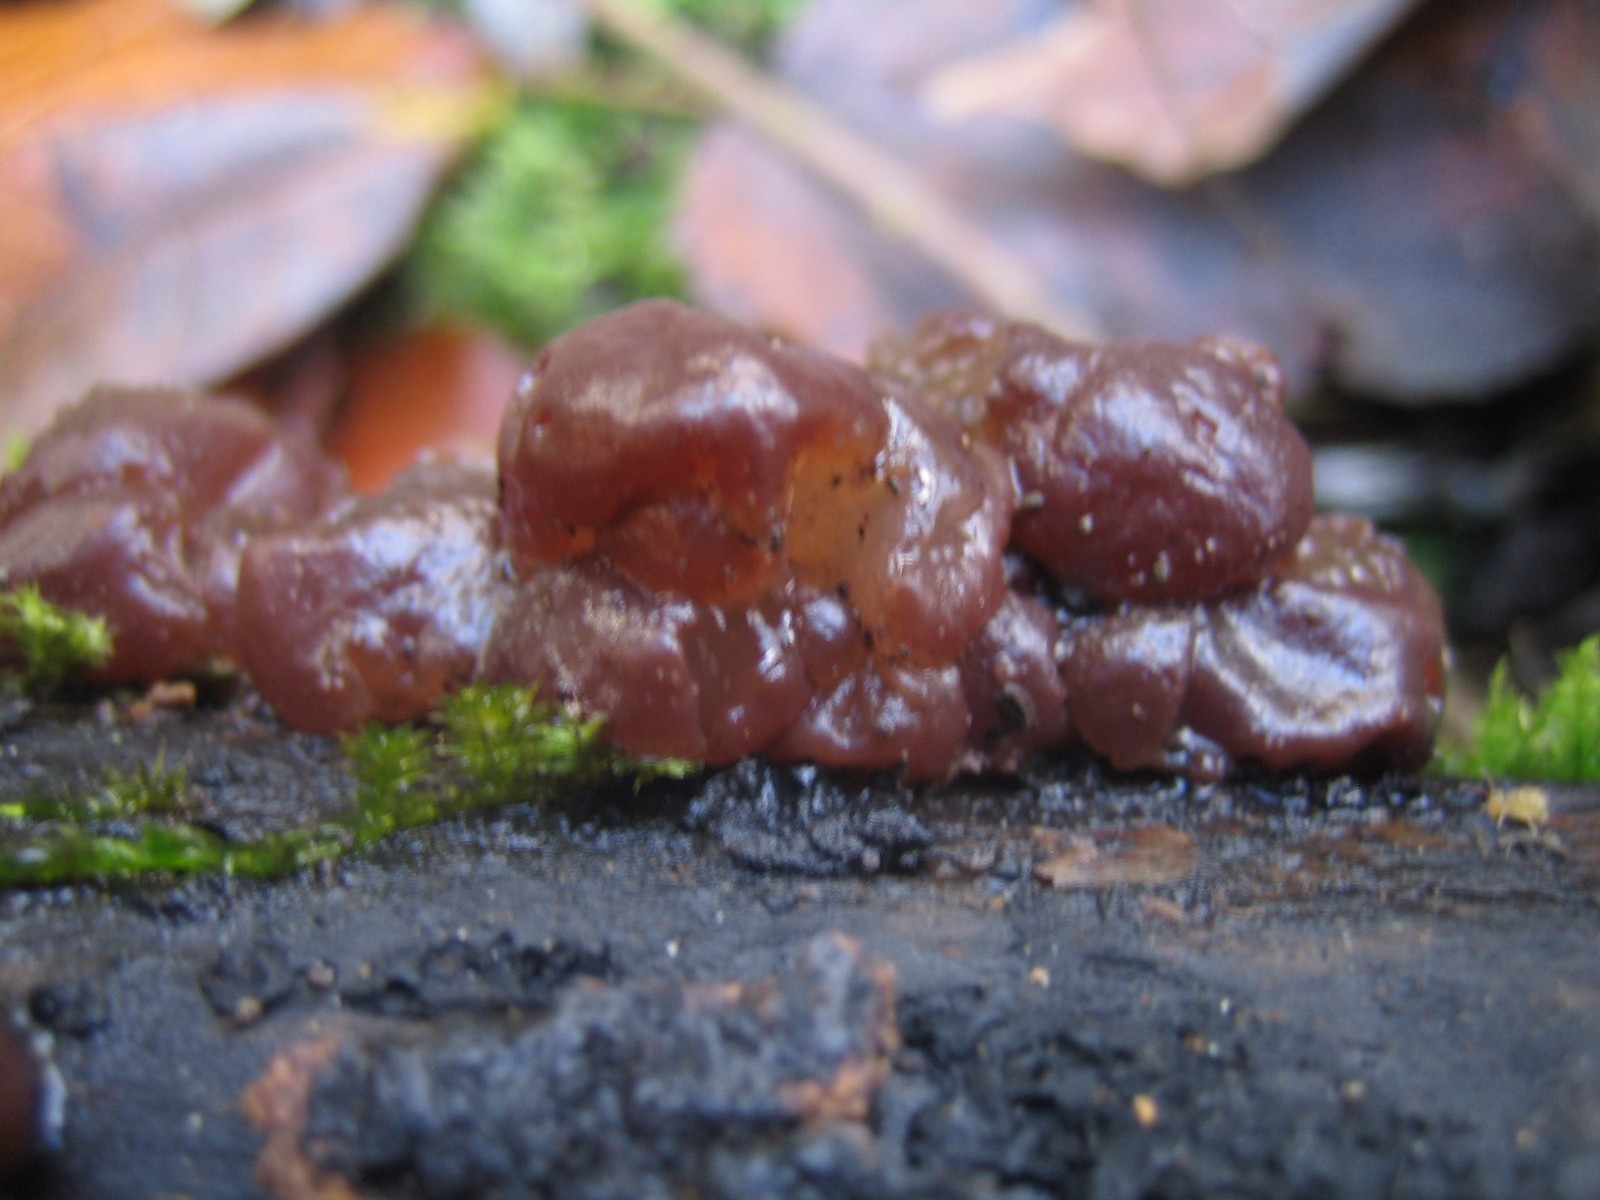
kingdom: Fungi
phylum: Basidiomycota
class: Agaricomycetes
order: Auriculariales
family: Auriculariaceae
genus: Exidia
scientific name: Exidia recisa
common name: pile-bævretop
